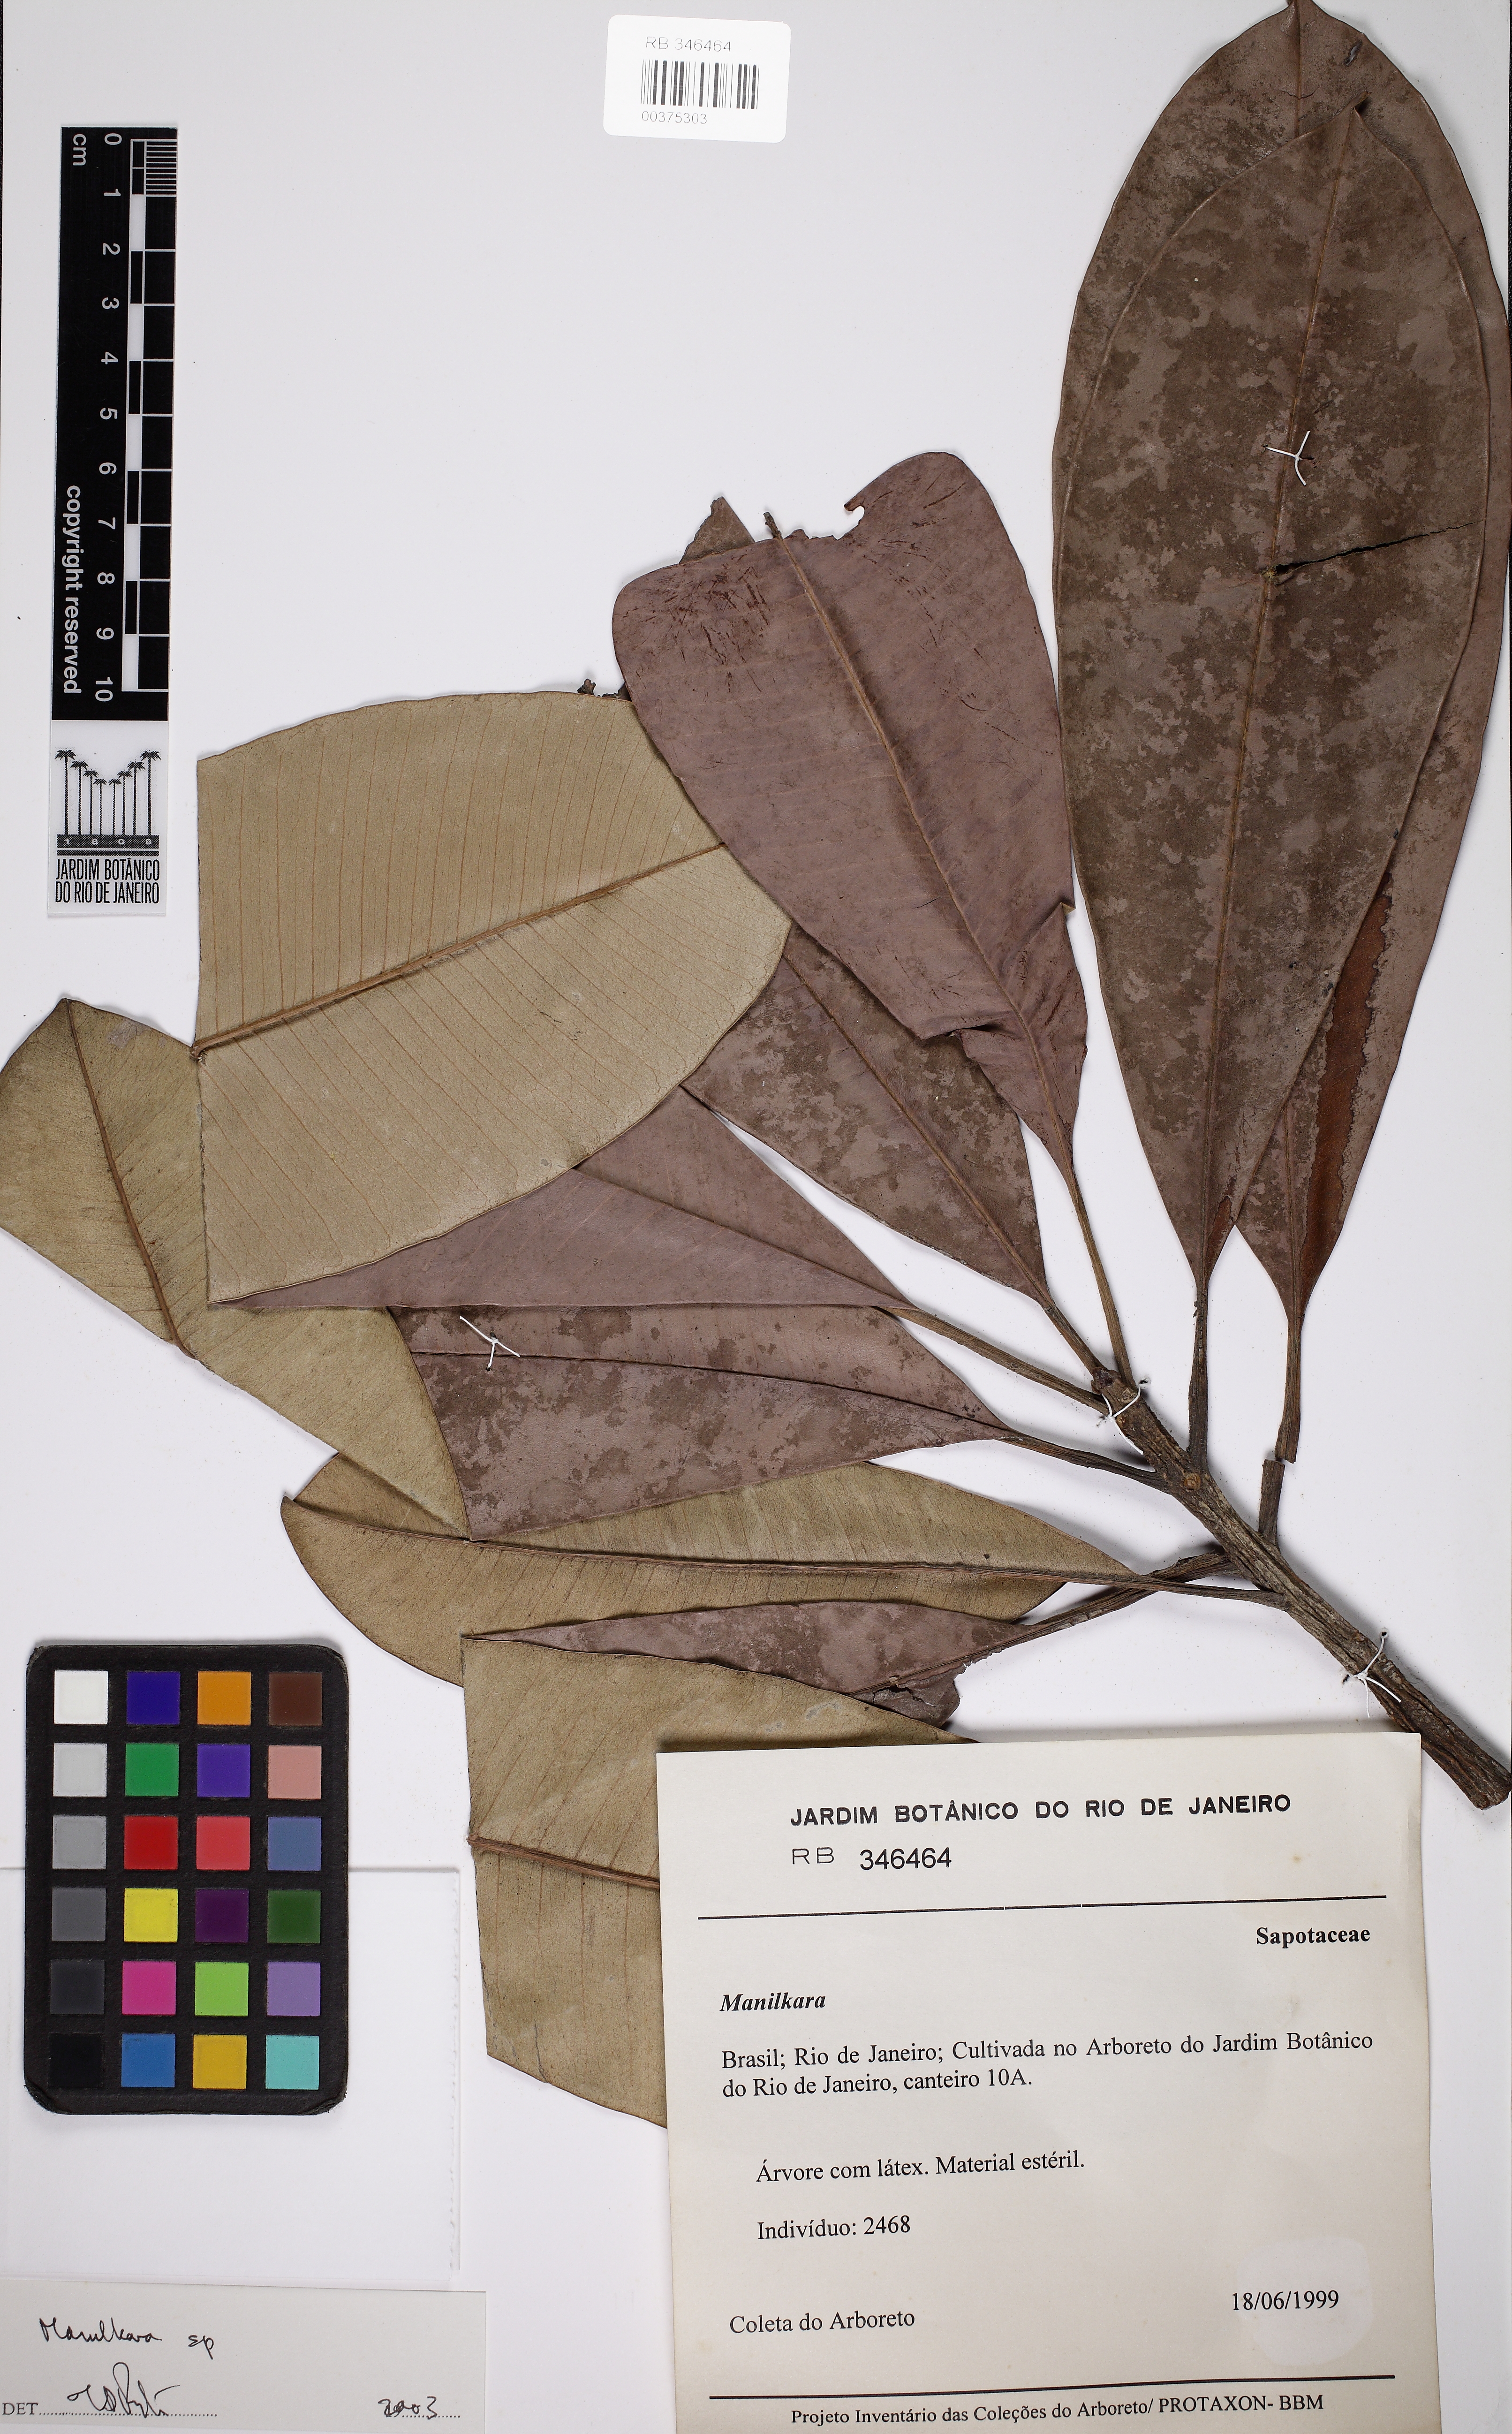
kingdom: Plantae
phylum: Tracheophyta
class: Magnoliopsida
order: Ericales
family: Sapotaceae
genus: Manilkara
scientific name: Manilkara
